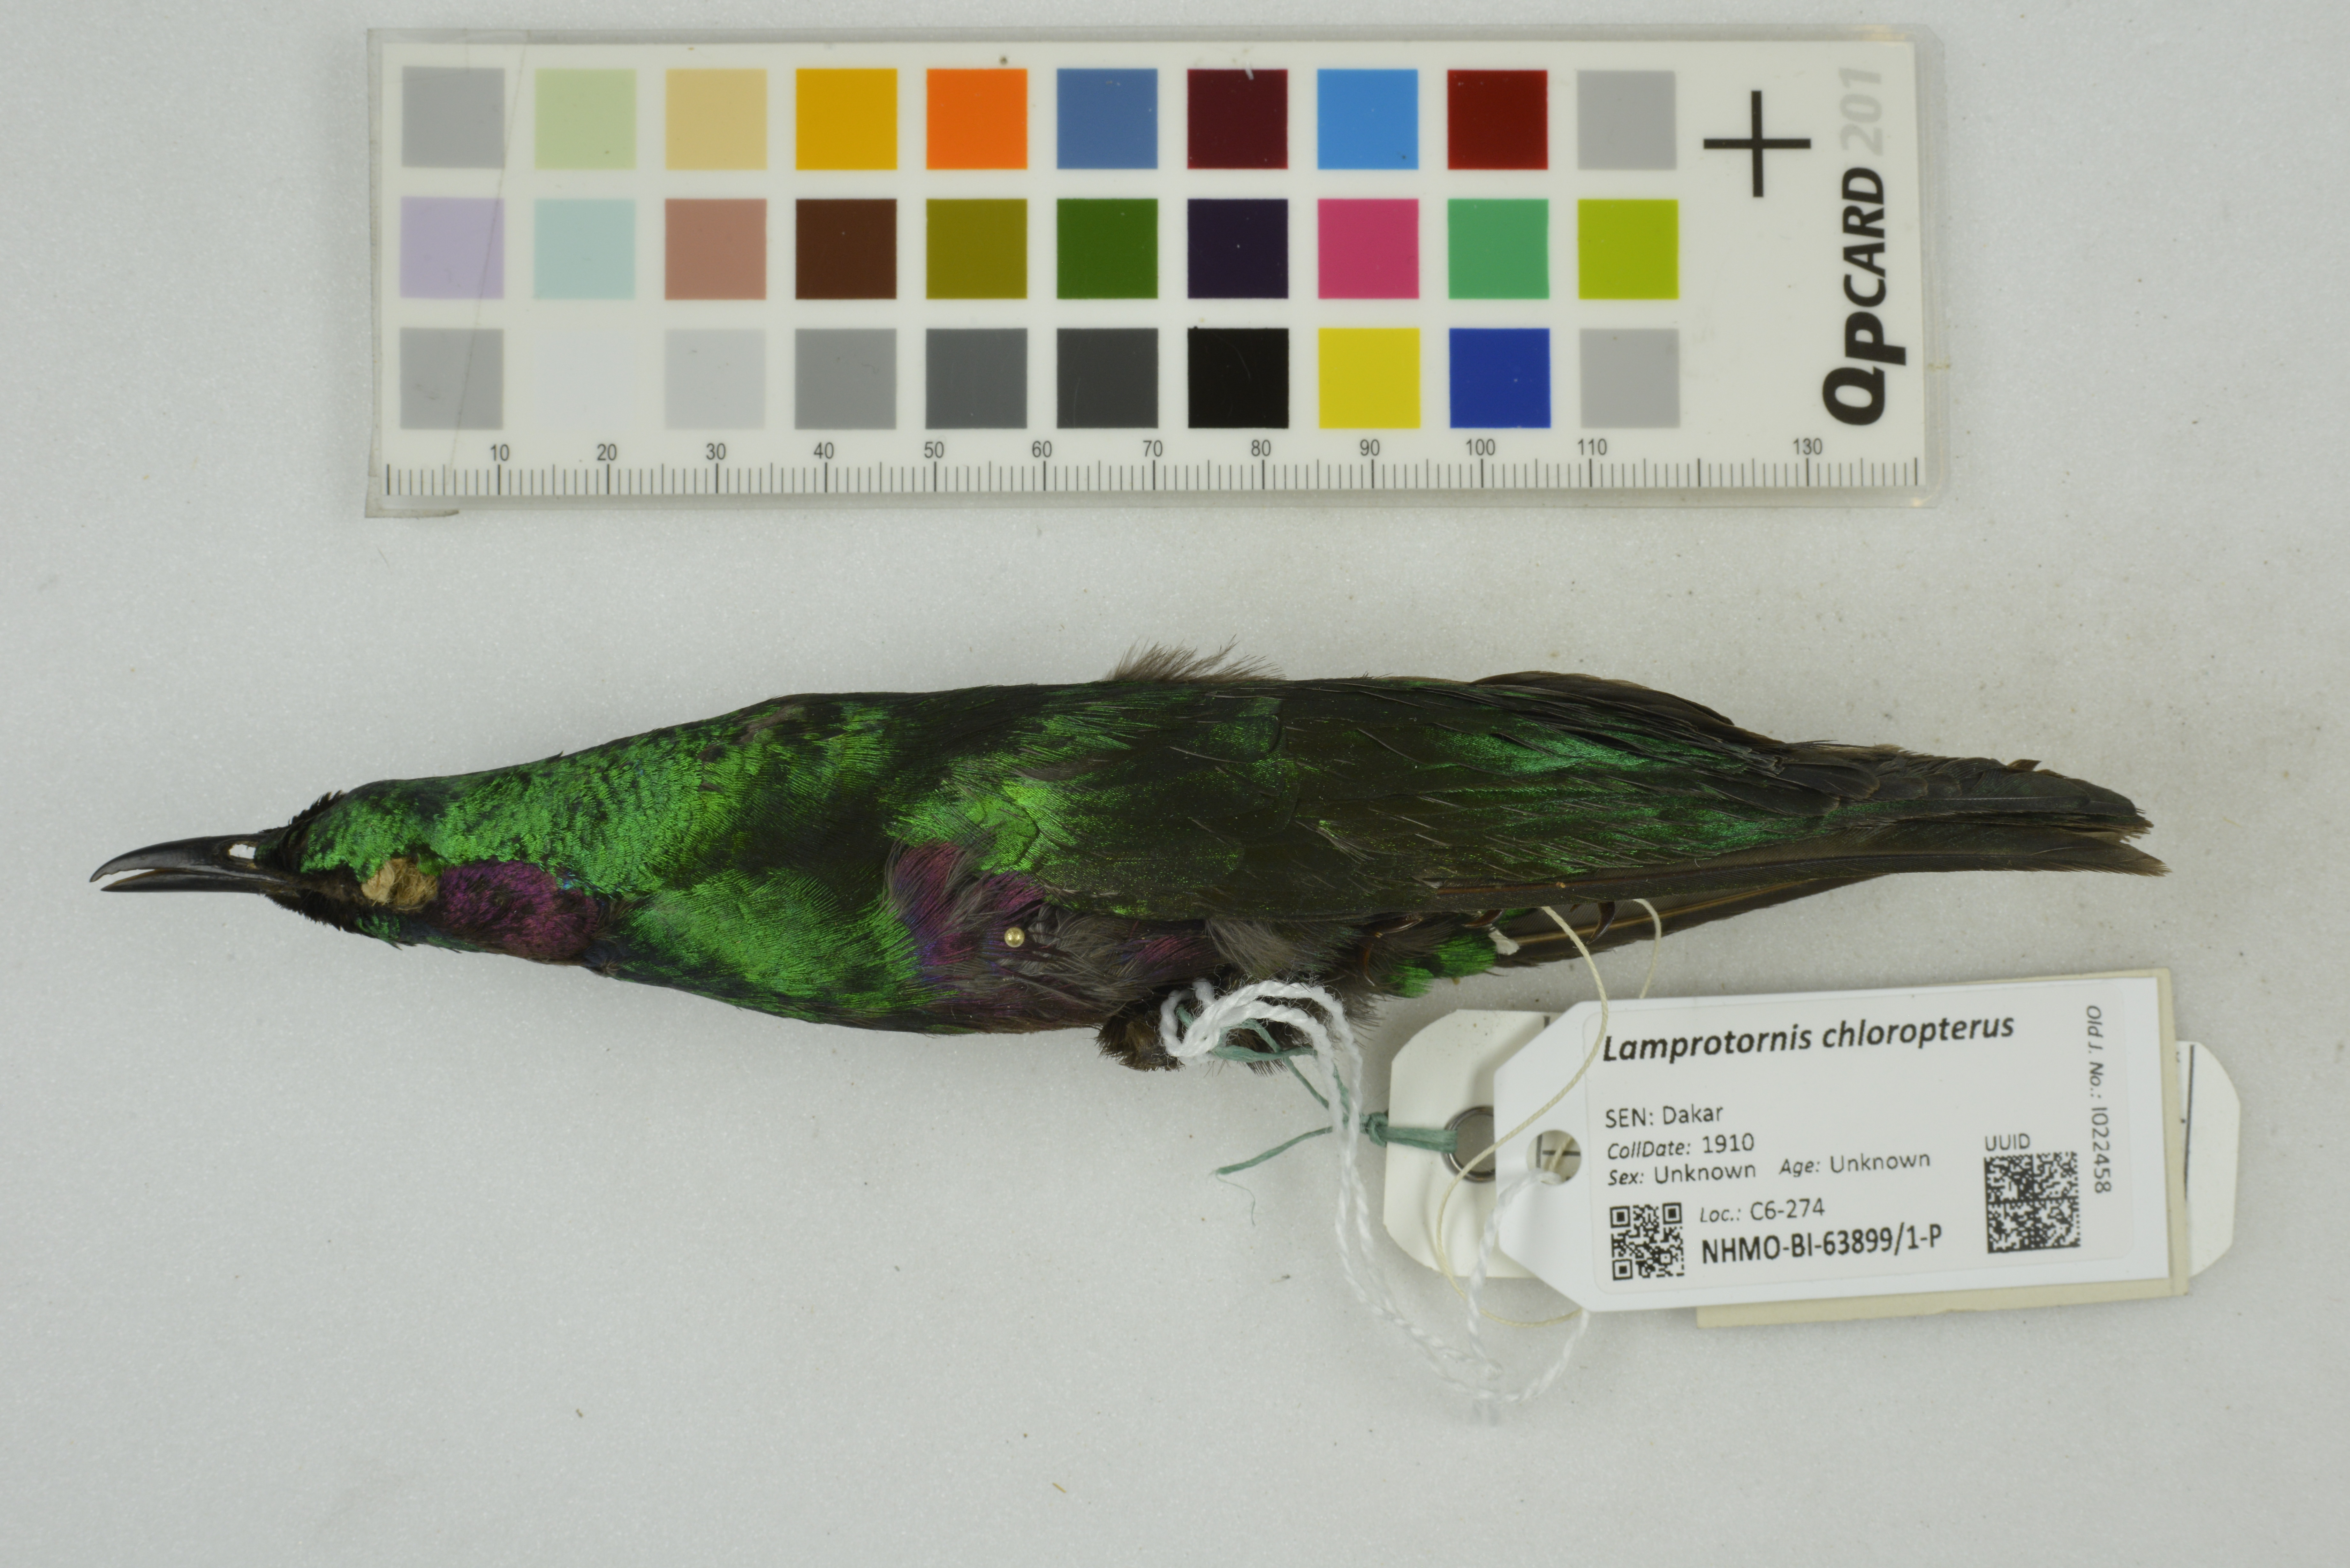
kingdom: Animalia
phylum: Chordata
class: Aves
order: Passeriformes
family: Sturnidae
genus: Lamprotornis
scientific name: Lamprotornis chloropterus
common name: Lesser blue-eared starling
